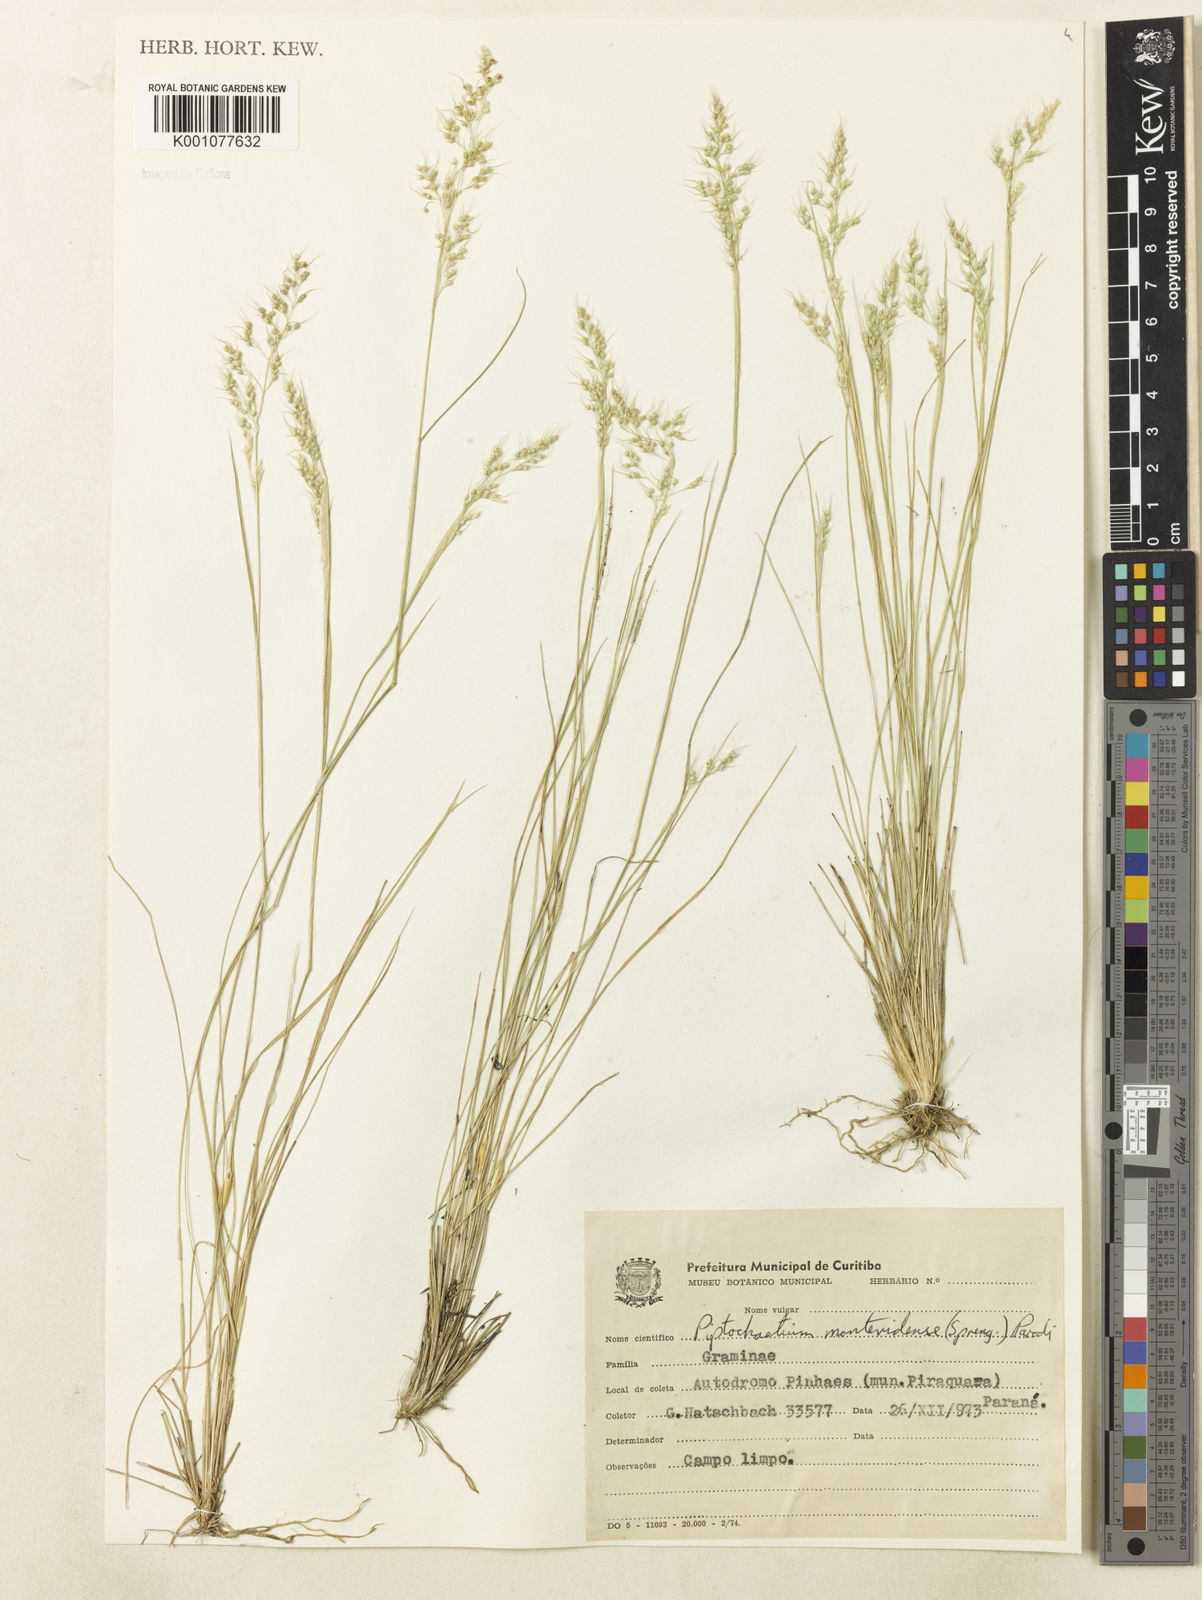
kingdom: Plantae
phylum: Tracheophyta
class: Liliopsida
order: Poales
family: Poaceae
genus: Piptochaetium
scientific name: Piptochaetium montevidense
